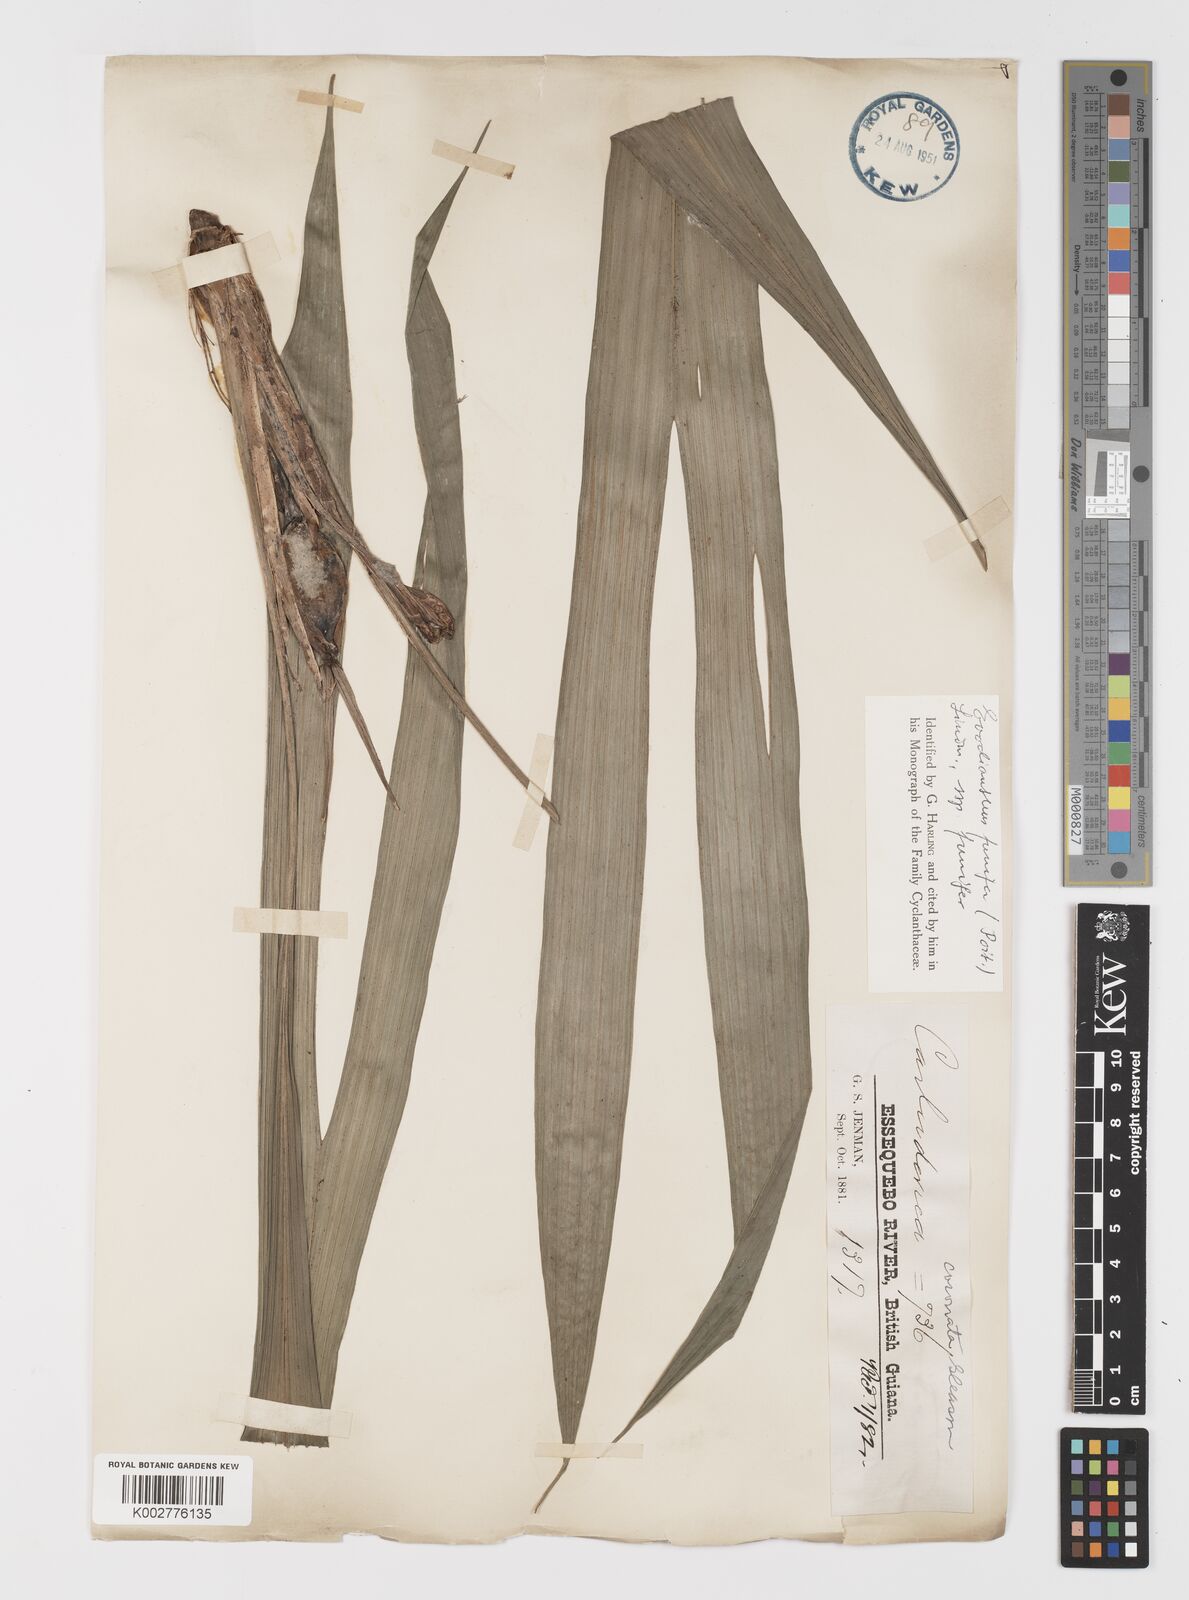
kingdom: Plantae
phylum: Tracheophyta
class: Liliopsida
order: Pandanales
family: Cyclanthaceae
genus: Evodianthus
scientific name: Evodianthus funifer
